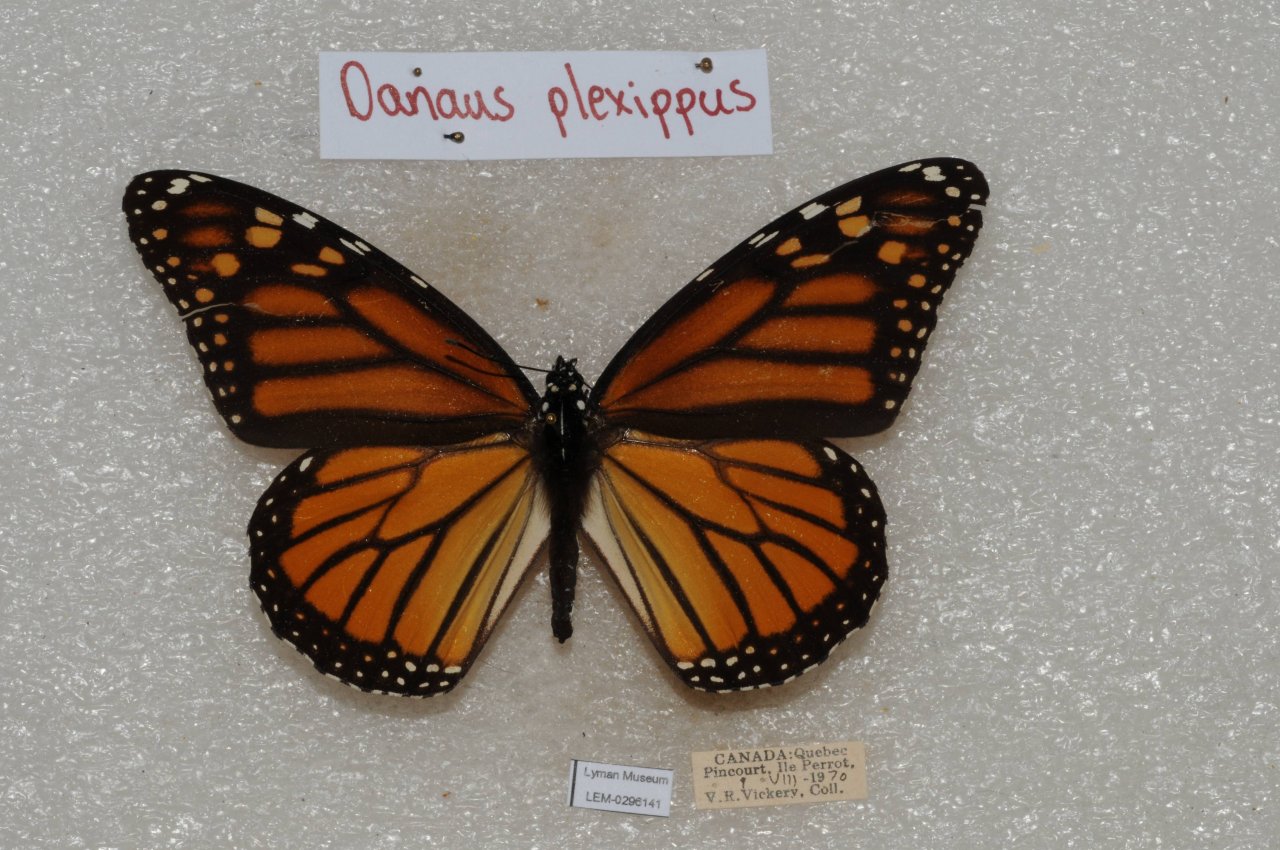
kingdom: Animalia
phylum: Arthropoda
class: Insecta
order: Lepidoptera
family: Nymphalidae
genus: Danaus
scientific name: Danaus plexippus
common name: Monarch
